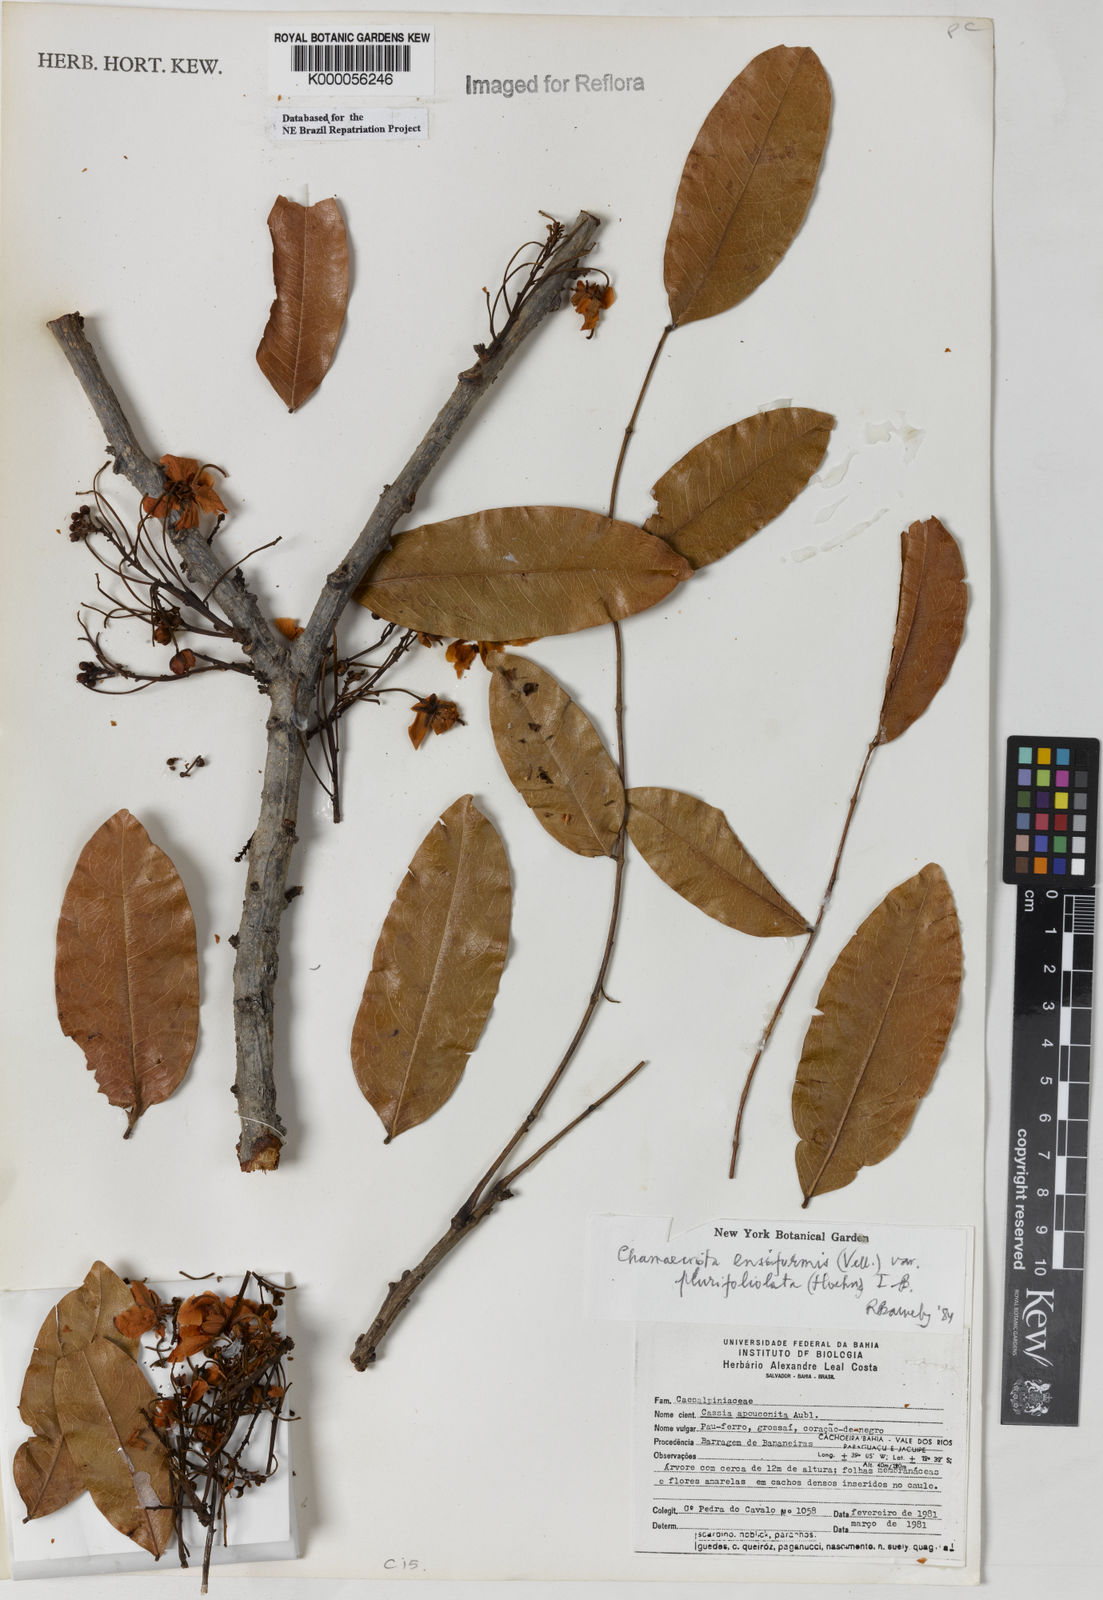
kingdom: Plantae
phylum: Tracheophyta
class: Magnoliopsida
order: Fabales
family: Fabaceae
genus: Chamaecrista
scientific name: Chamaecrista ensiformis
